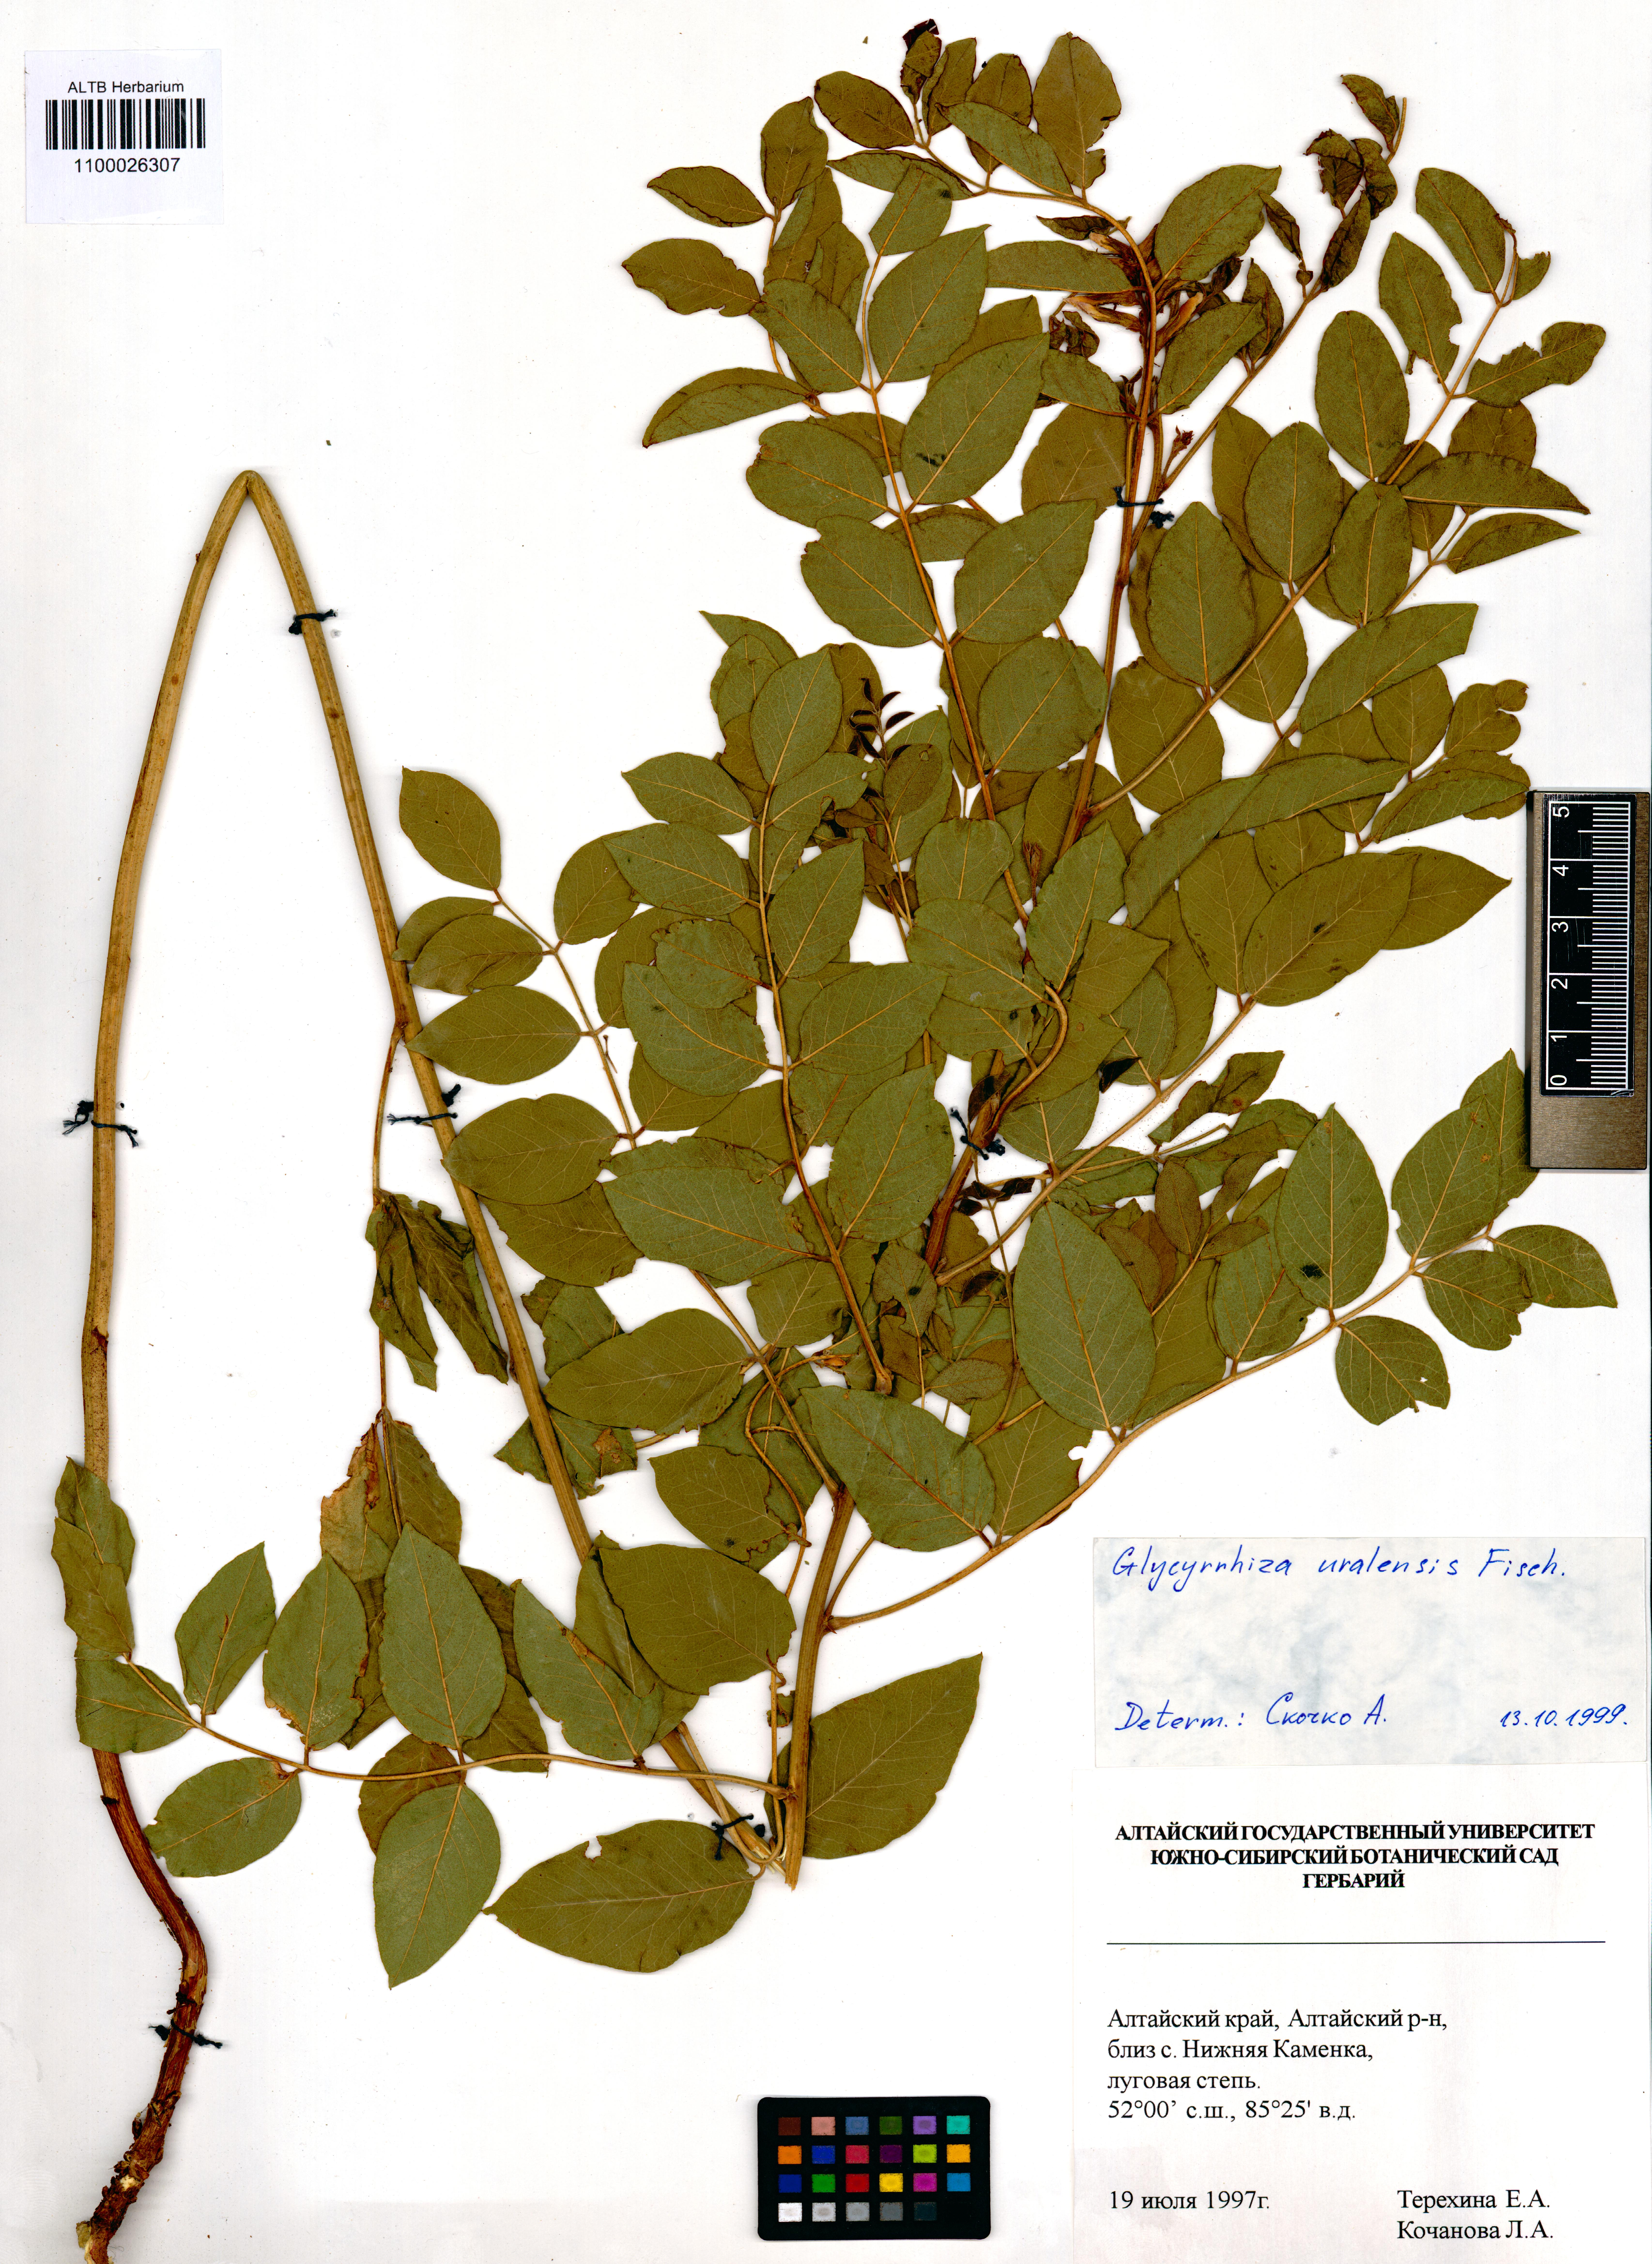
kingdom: Plantae
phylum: Tracheophyta
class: Magnoliopsida
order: Fabales
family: Fabaceae
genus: Glycyrrhiza
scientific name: Glycyrrhiza uralensis
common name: Chinese licorice
